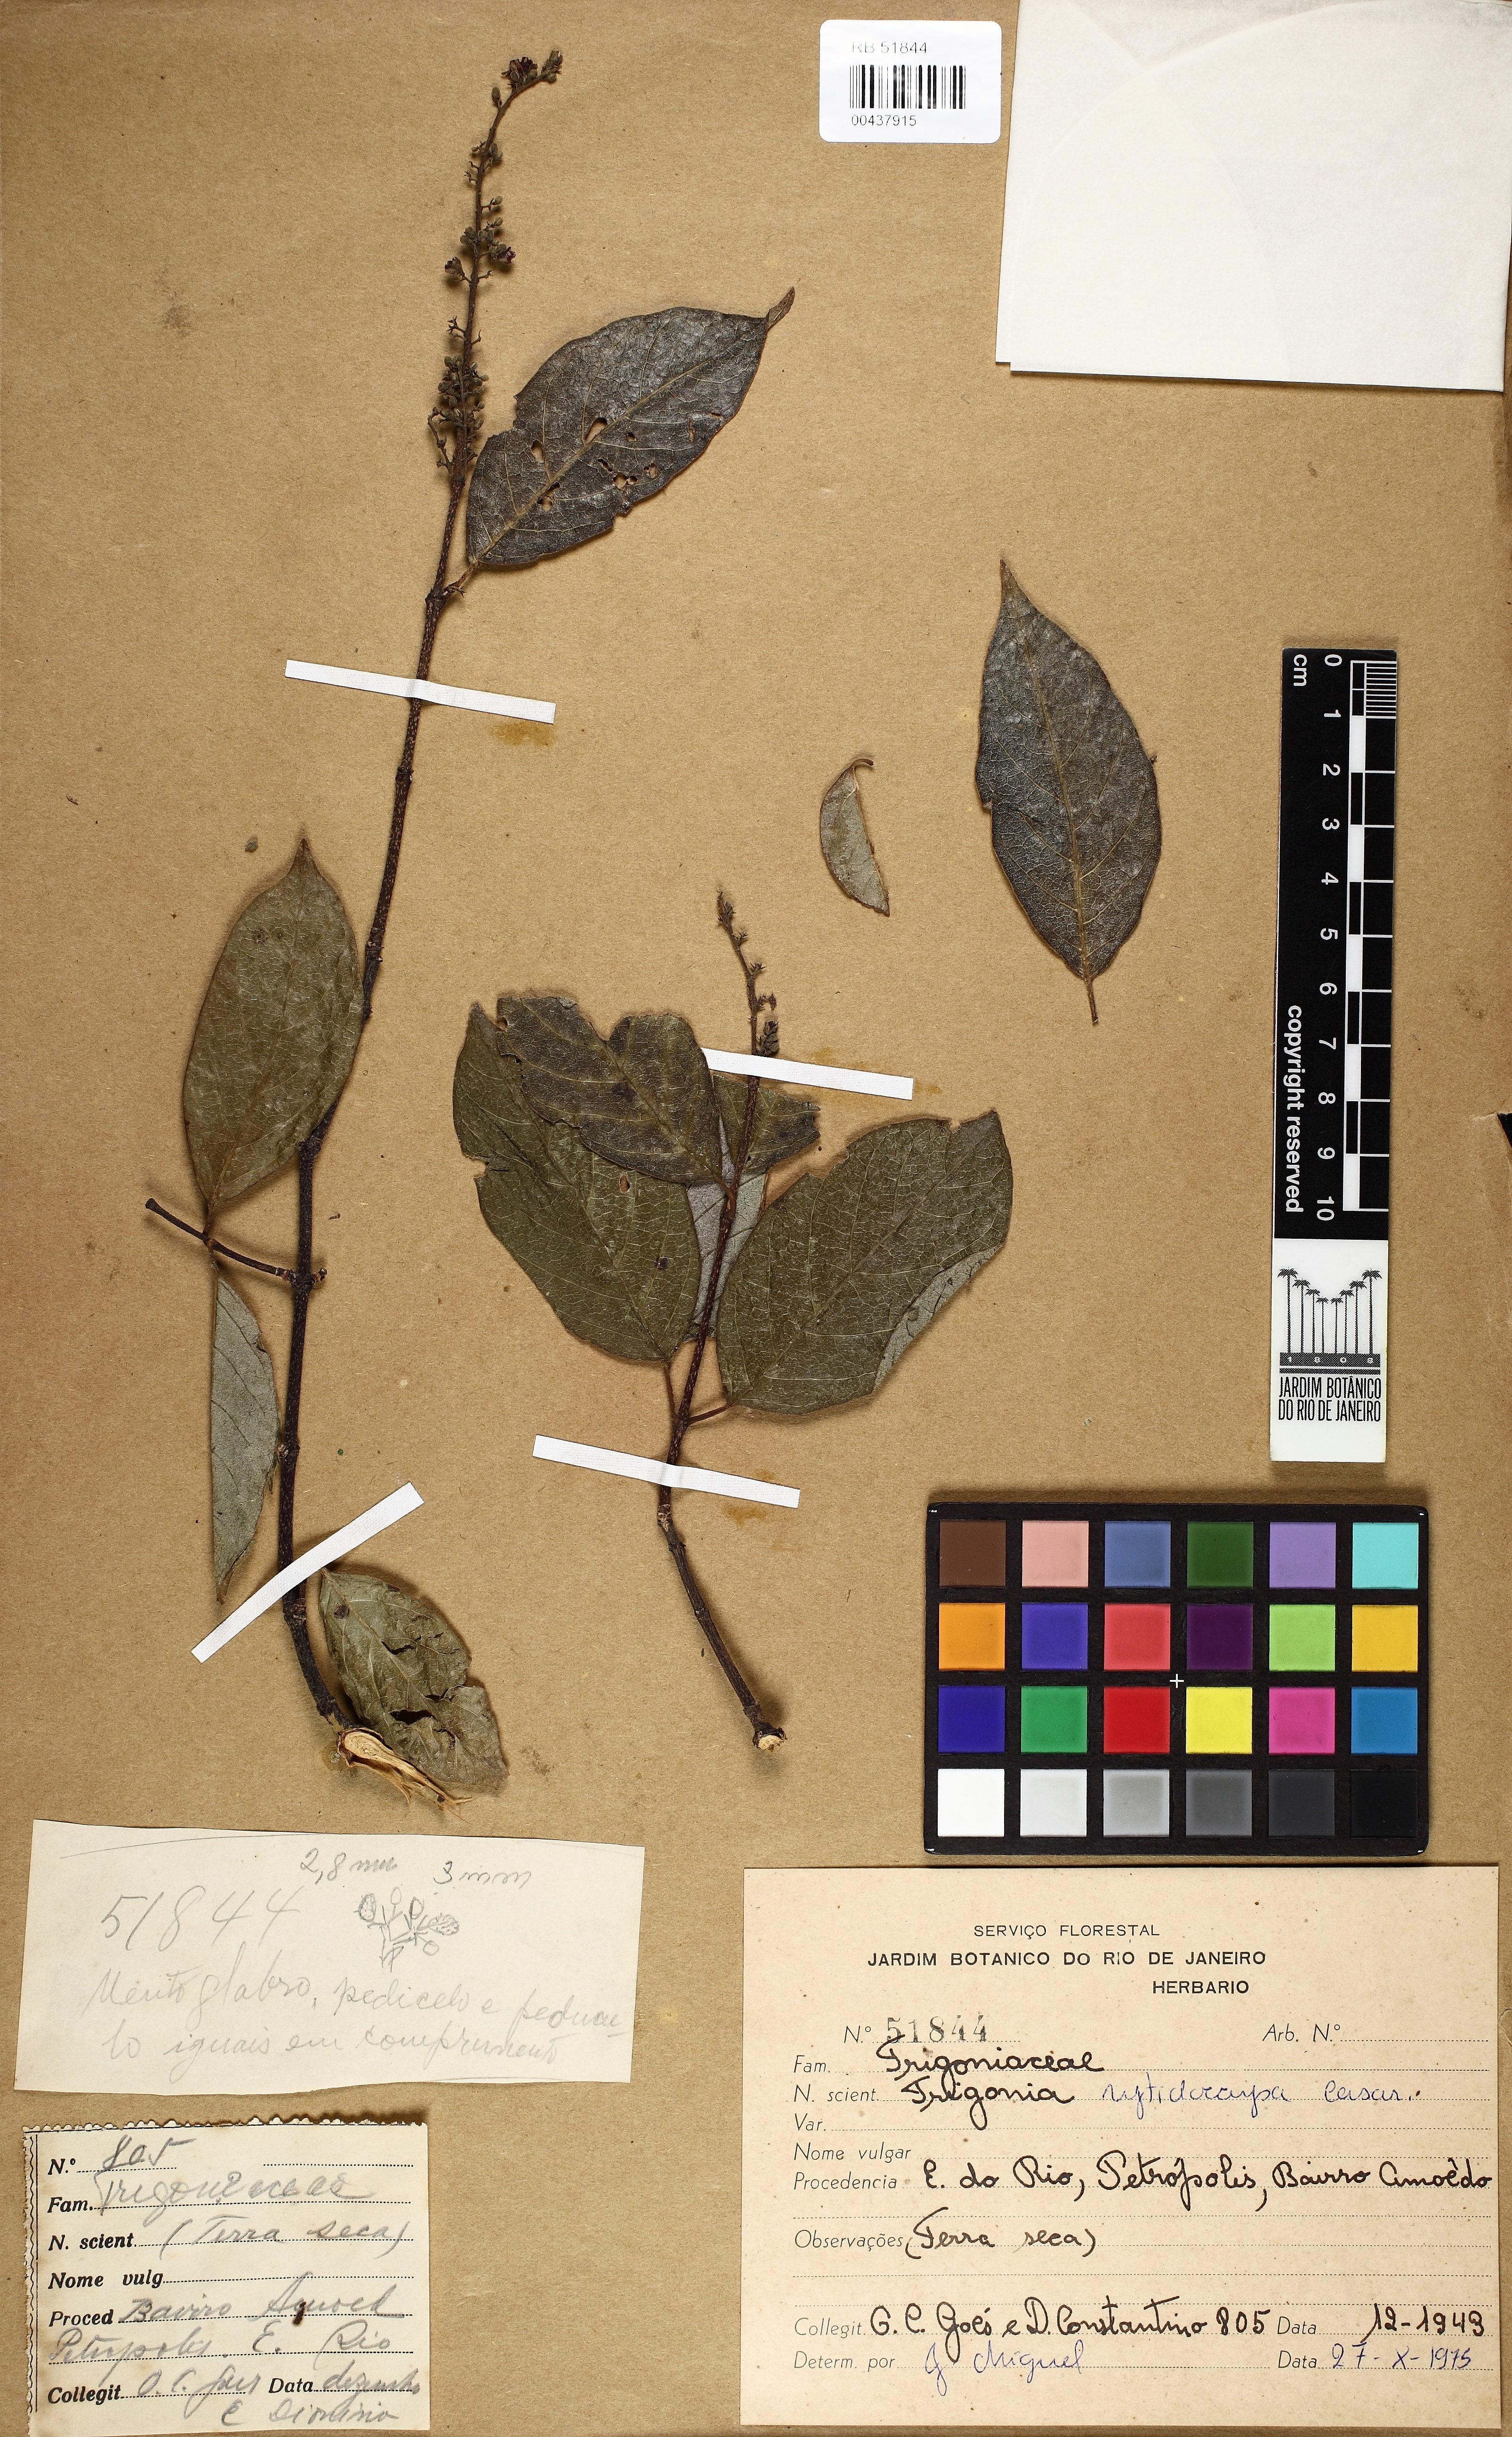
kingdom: Plantae
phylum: Tracheophyta
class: Magnoliopsida
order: Malpighiales
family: Trigoniaceae
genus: Trigonia
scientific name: Trigonia rytidocarpa
